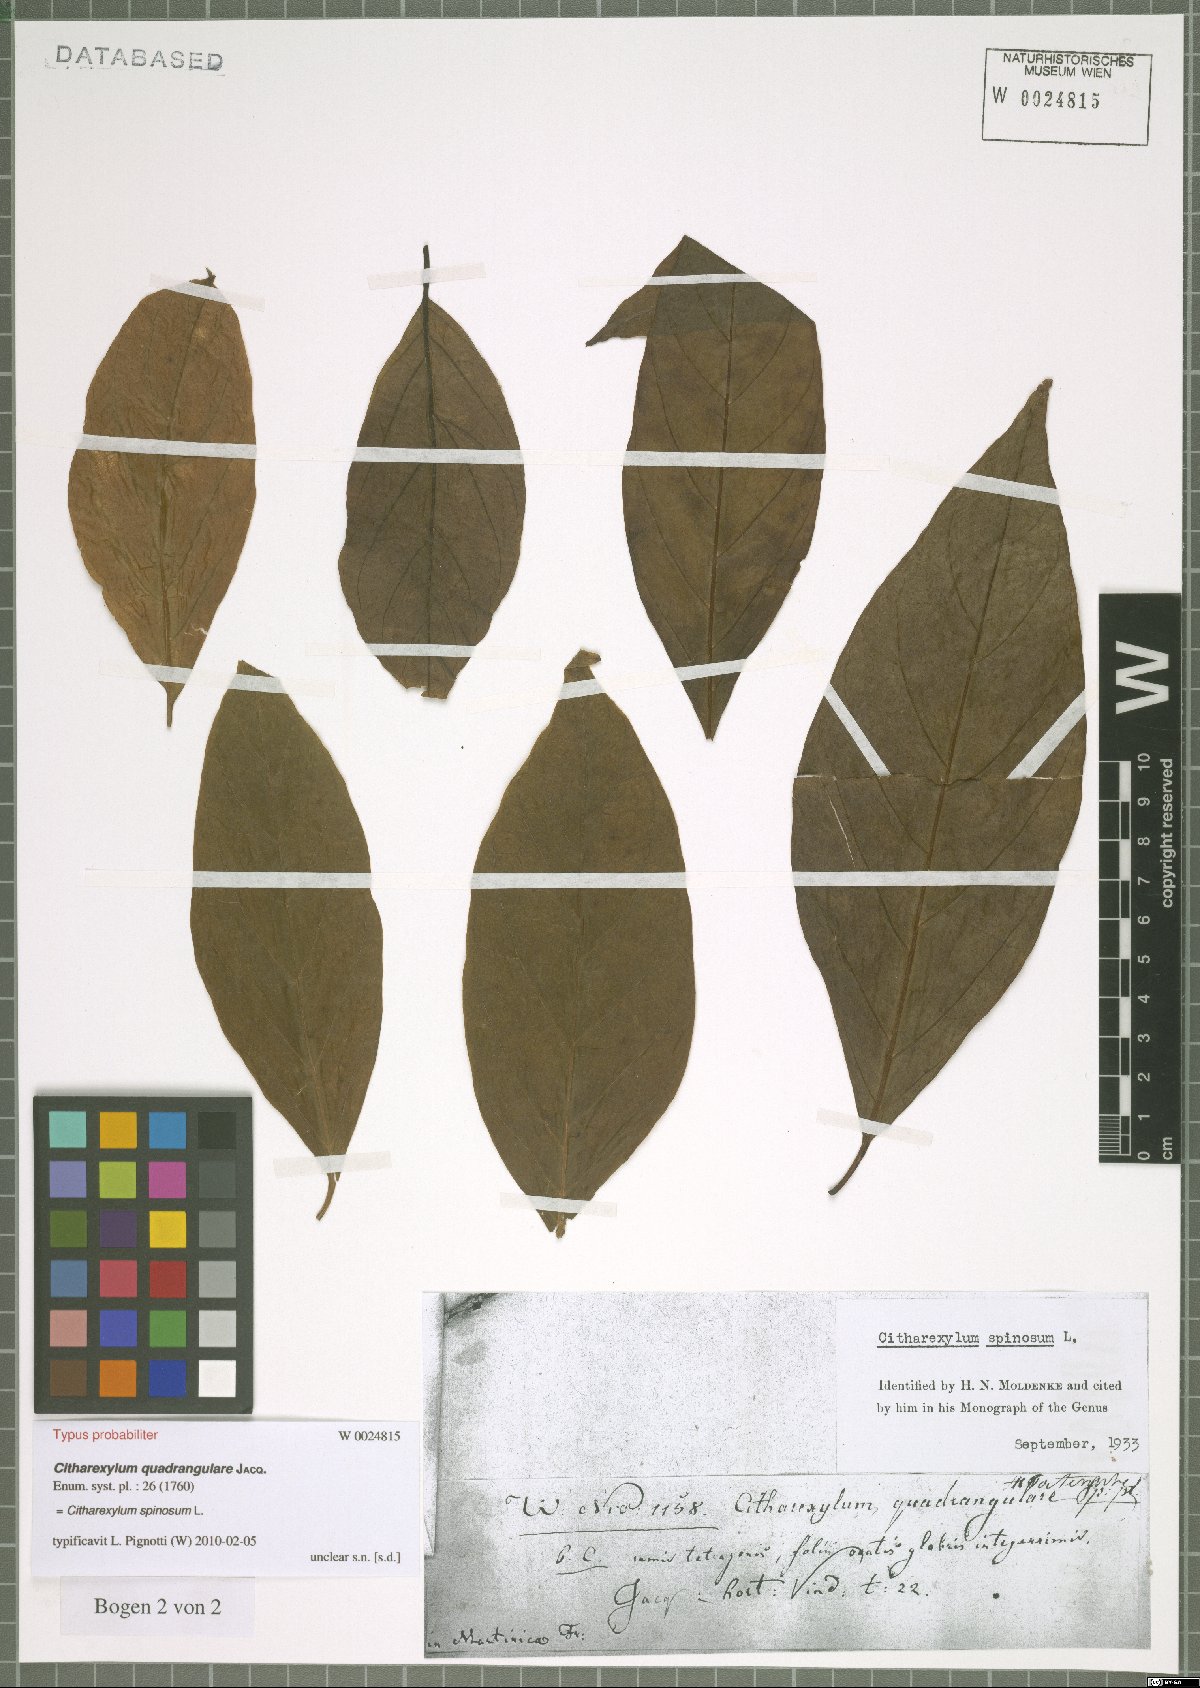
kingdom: Plantae
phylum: Tracheophyta
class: Magnoliopsida
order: Lamiales
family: Verbenaceae
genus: Citharexylum
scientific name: Citharexylum spinosum
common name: Fiddlewood
